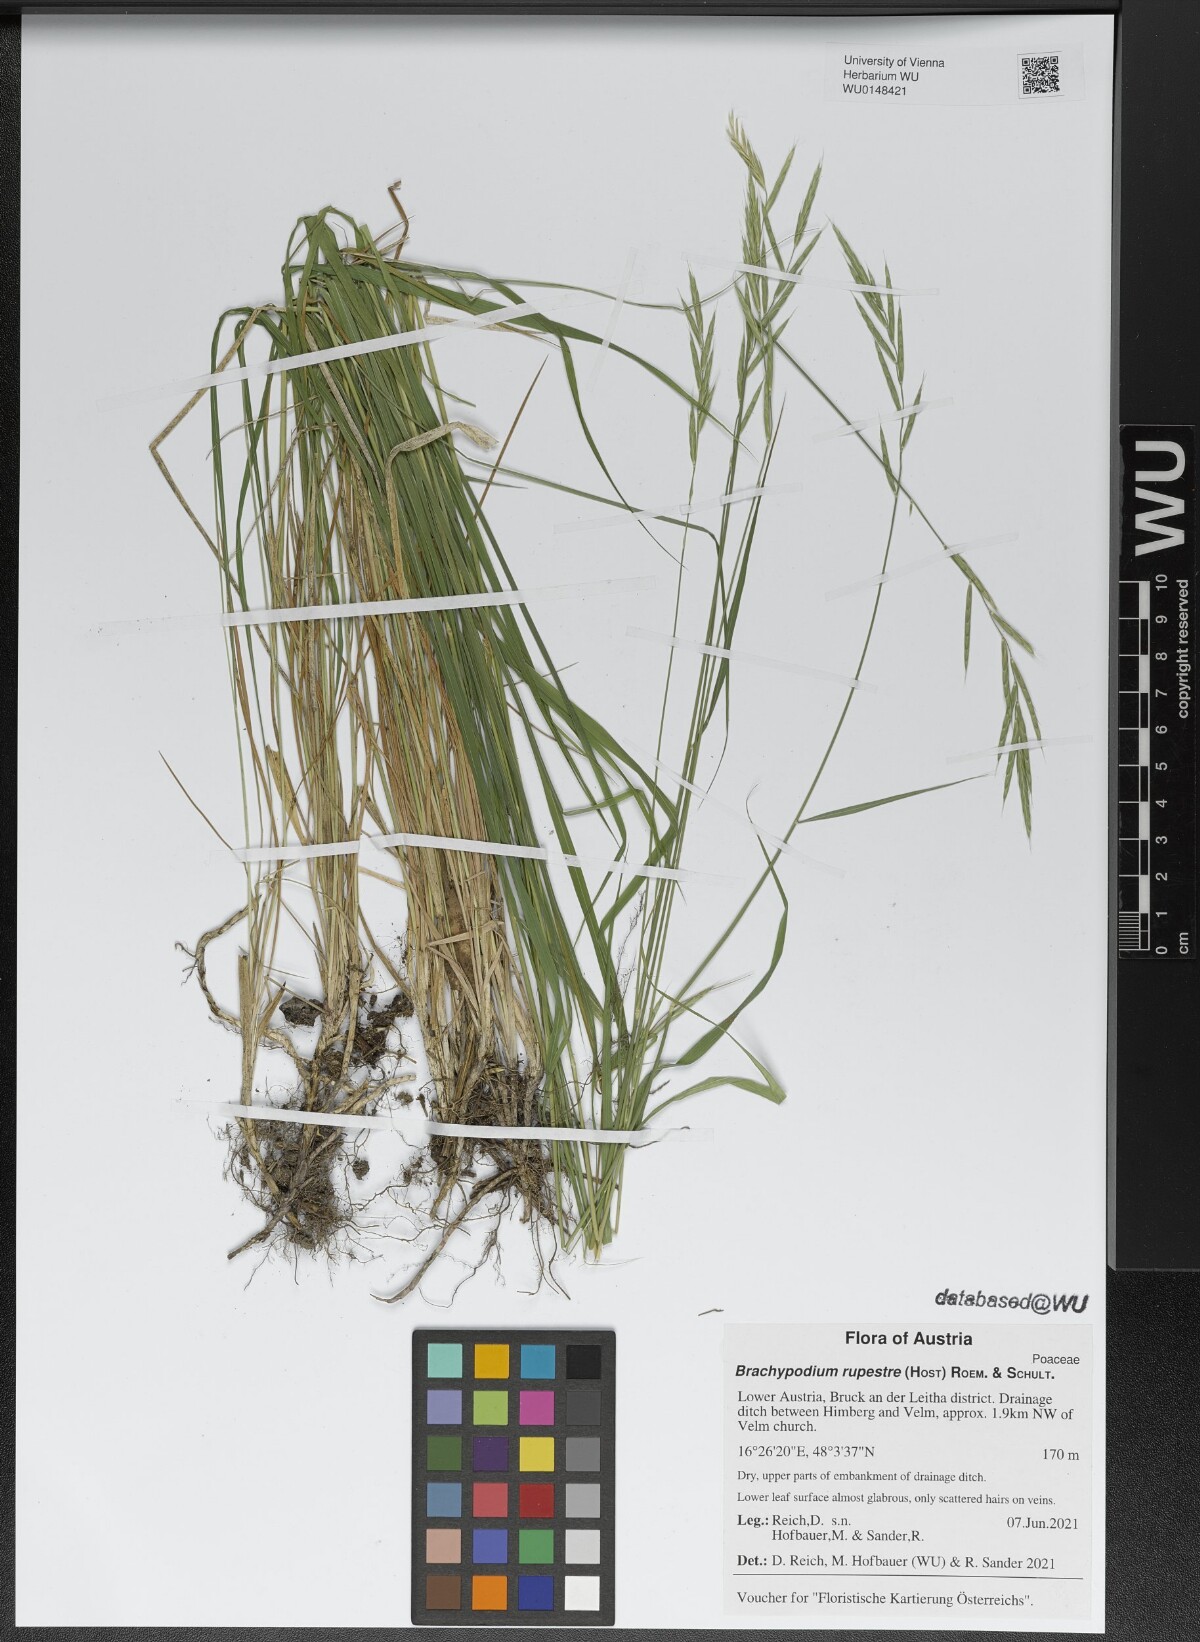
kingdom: Plantae
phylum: Tracheophyta
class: Liliopsida
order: Poales
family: Poaceae
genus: Brachypodium
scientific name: Brachypodium pinnatum
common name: Tor grass
